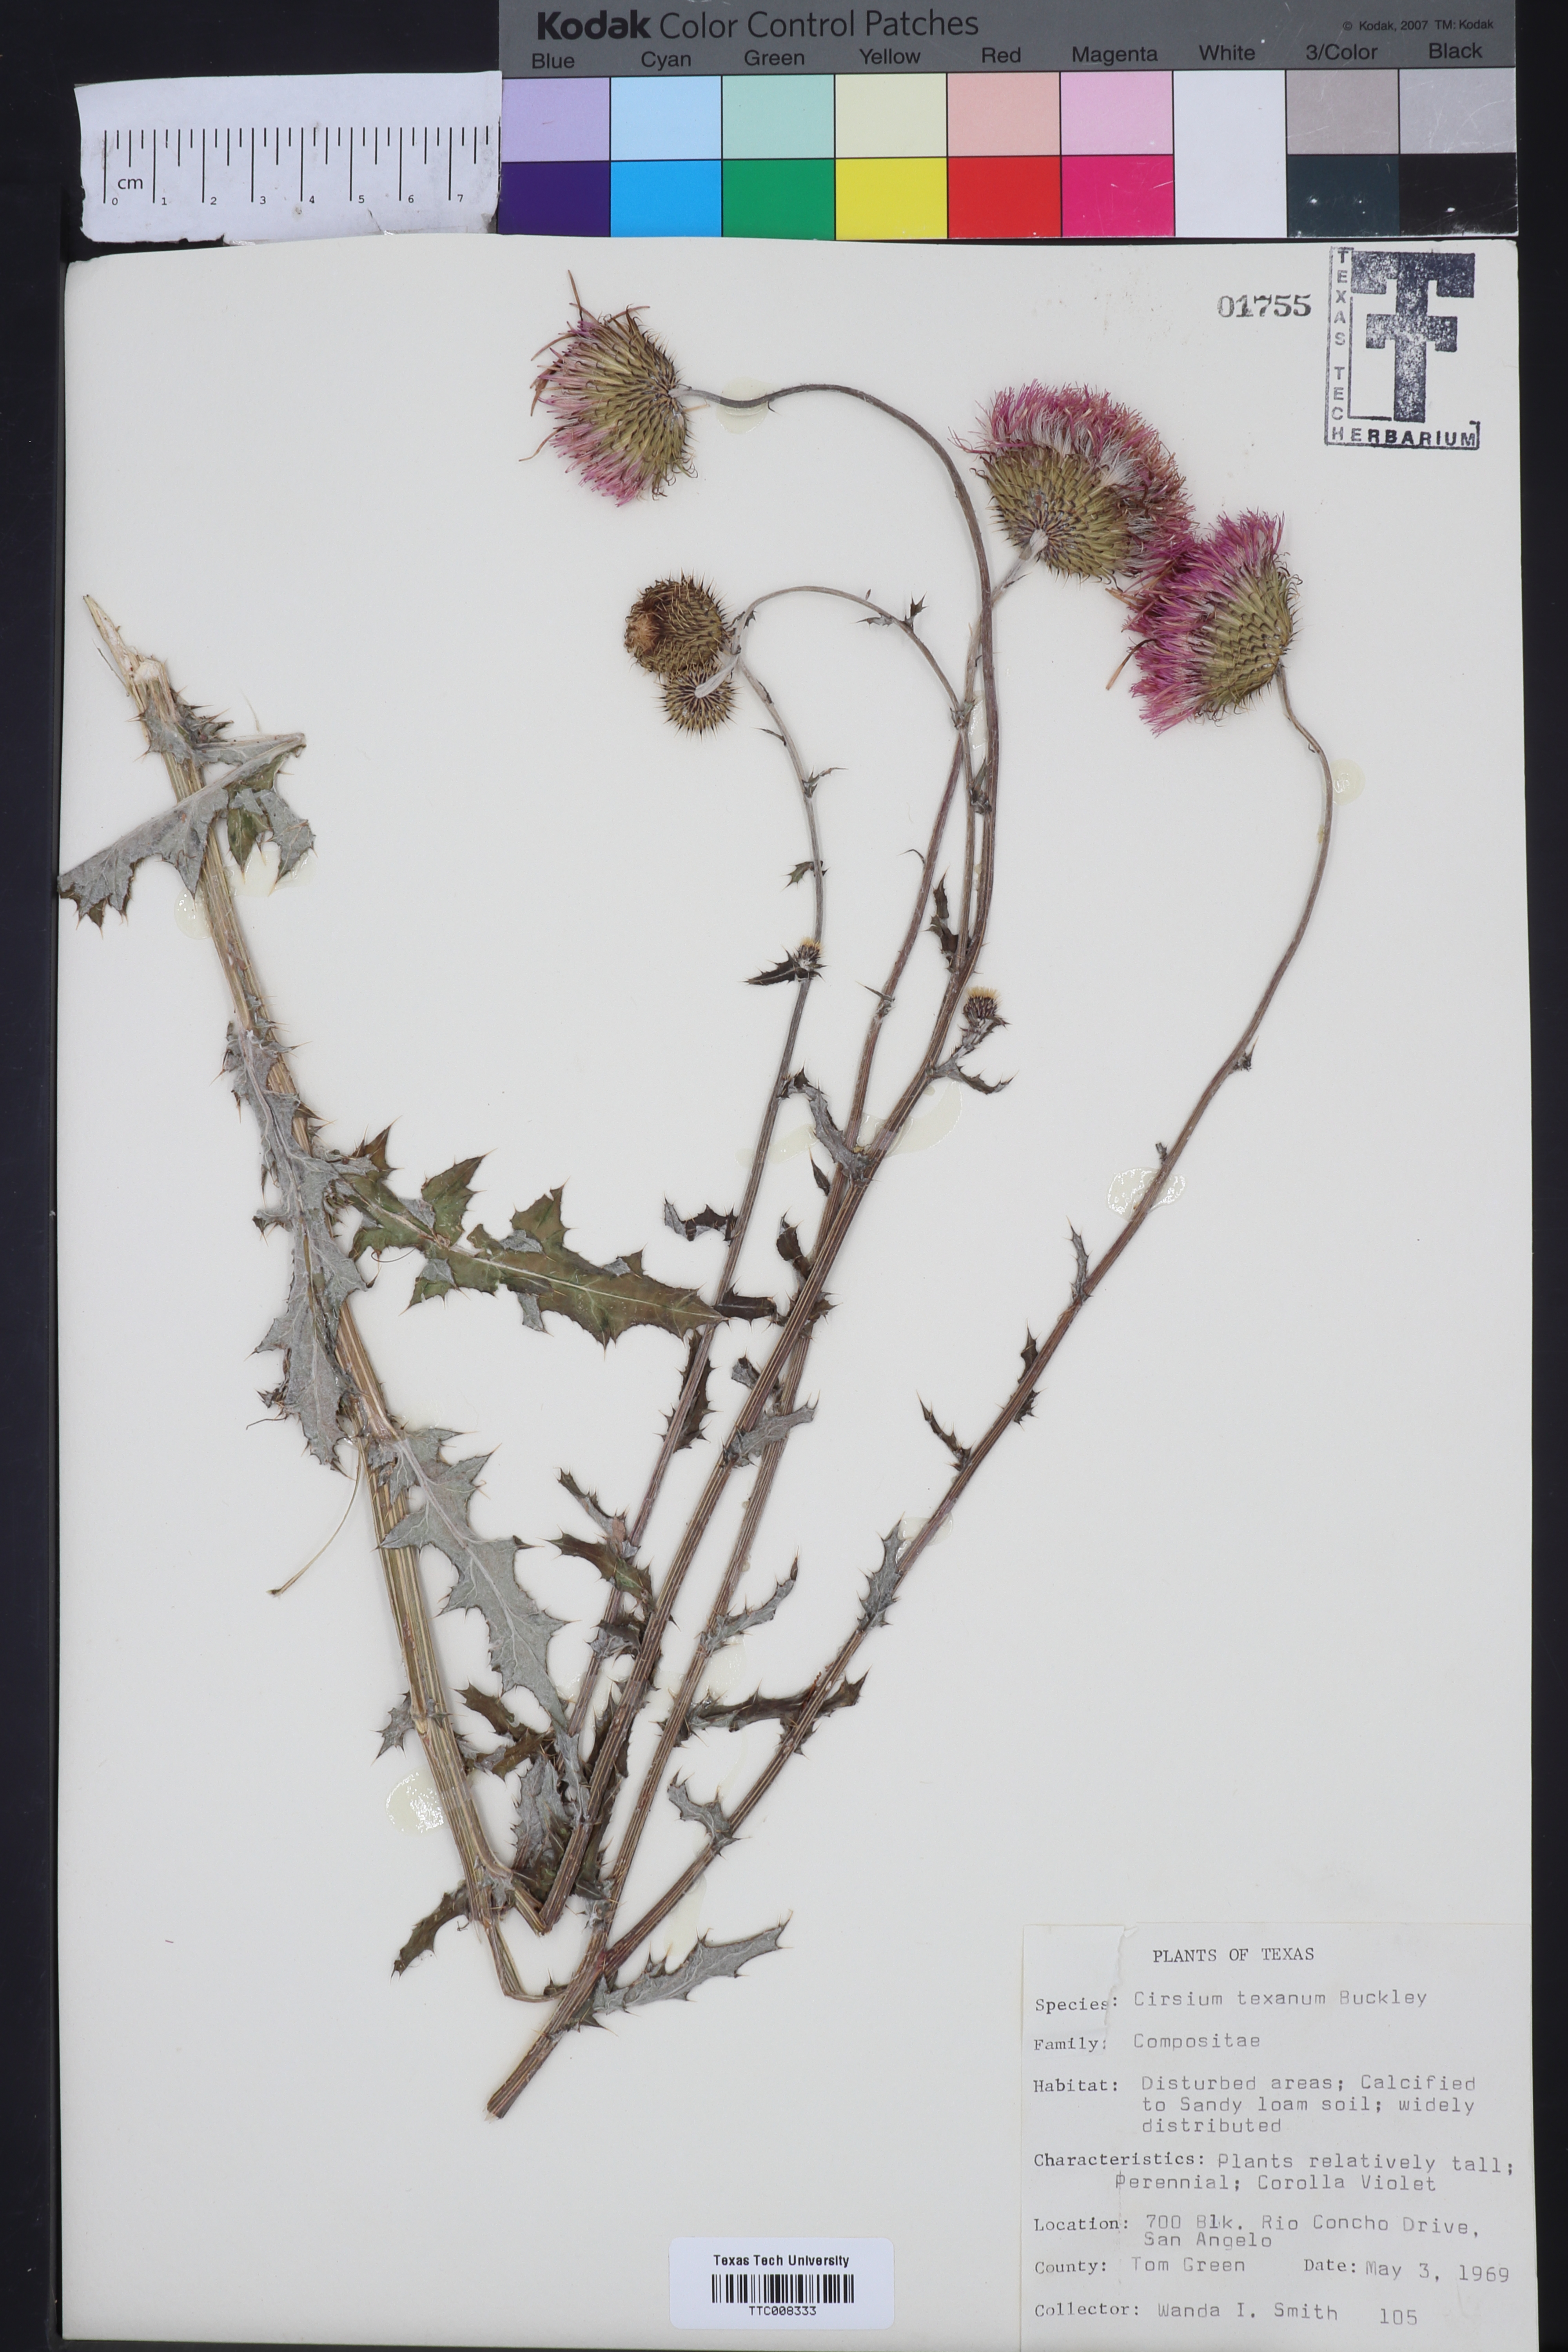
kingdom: Plantae
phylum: Tracheophyta
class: Magnoliopsida
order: Asterales
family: Asteraceae
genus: Cirsium
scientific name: Cirsium texanum
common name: Texas purple thistle
